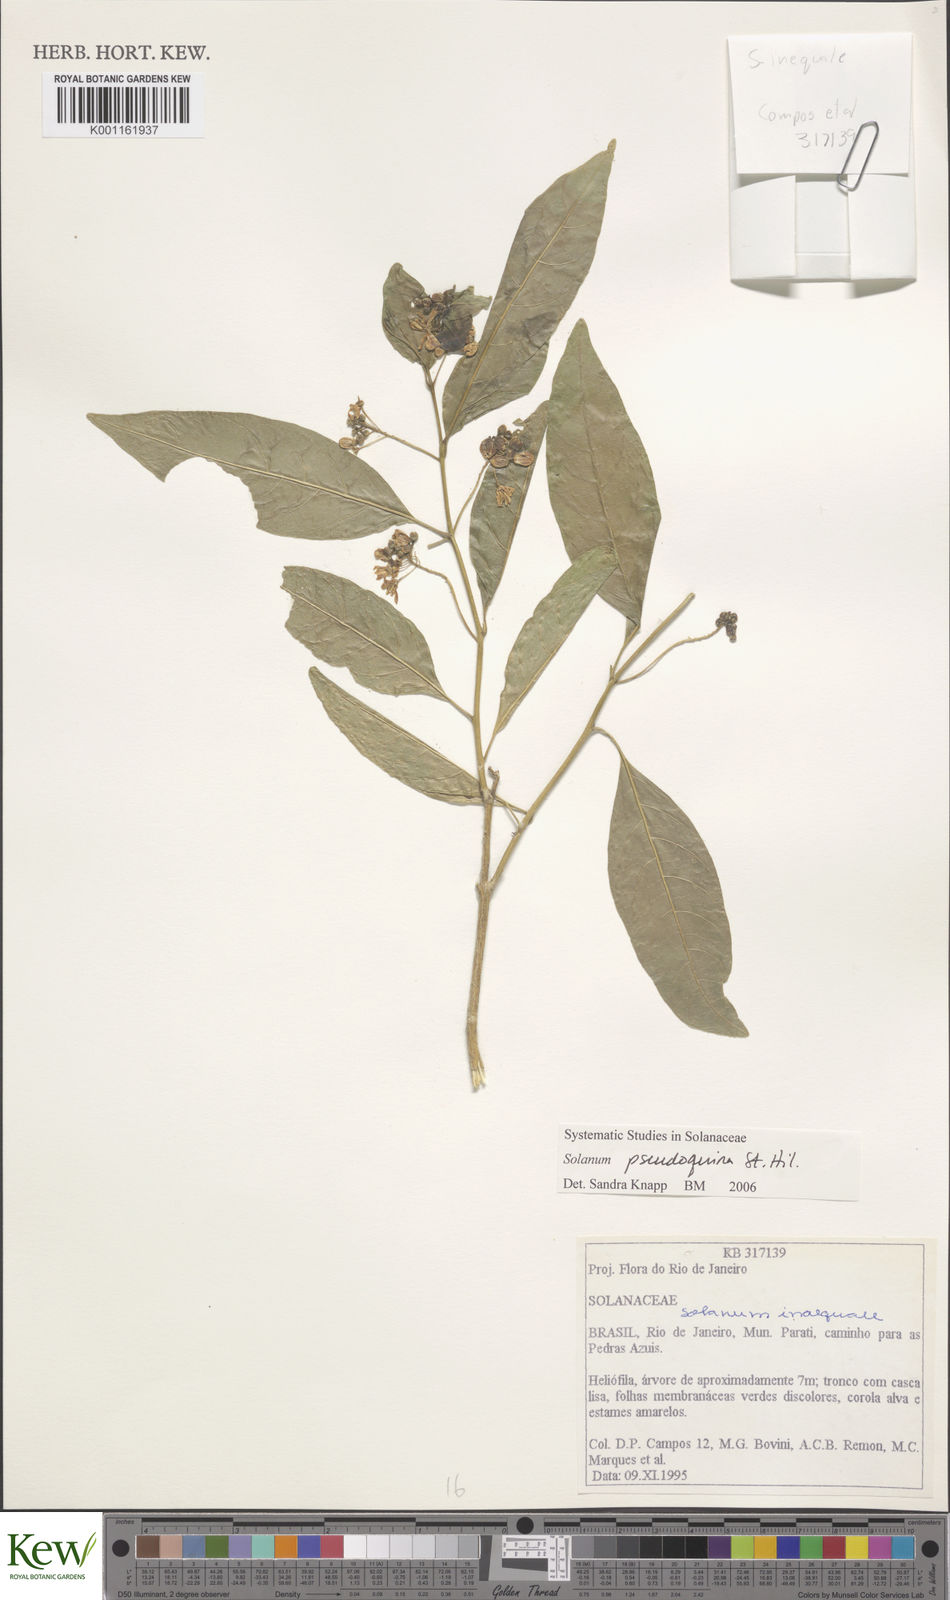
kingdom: Plantae
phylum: Tracheophyta
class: Magnoliopsida
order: Solanales
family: Solanaceae
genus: Solanum
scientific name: Solanum pseudoquina
